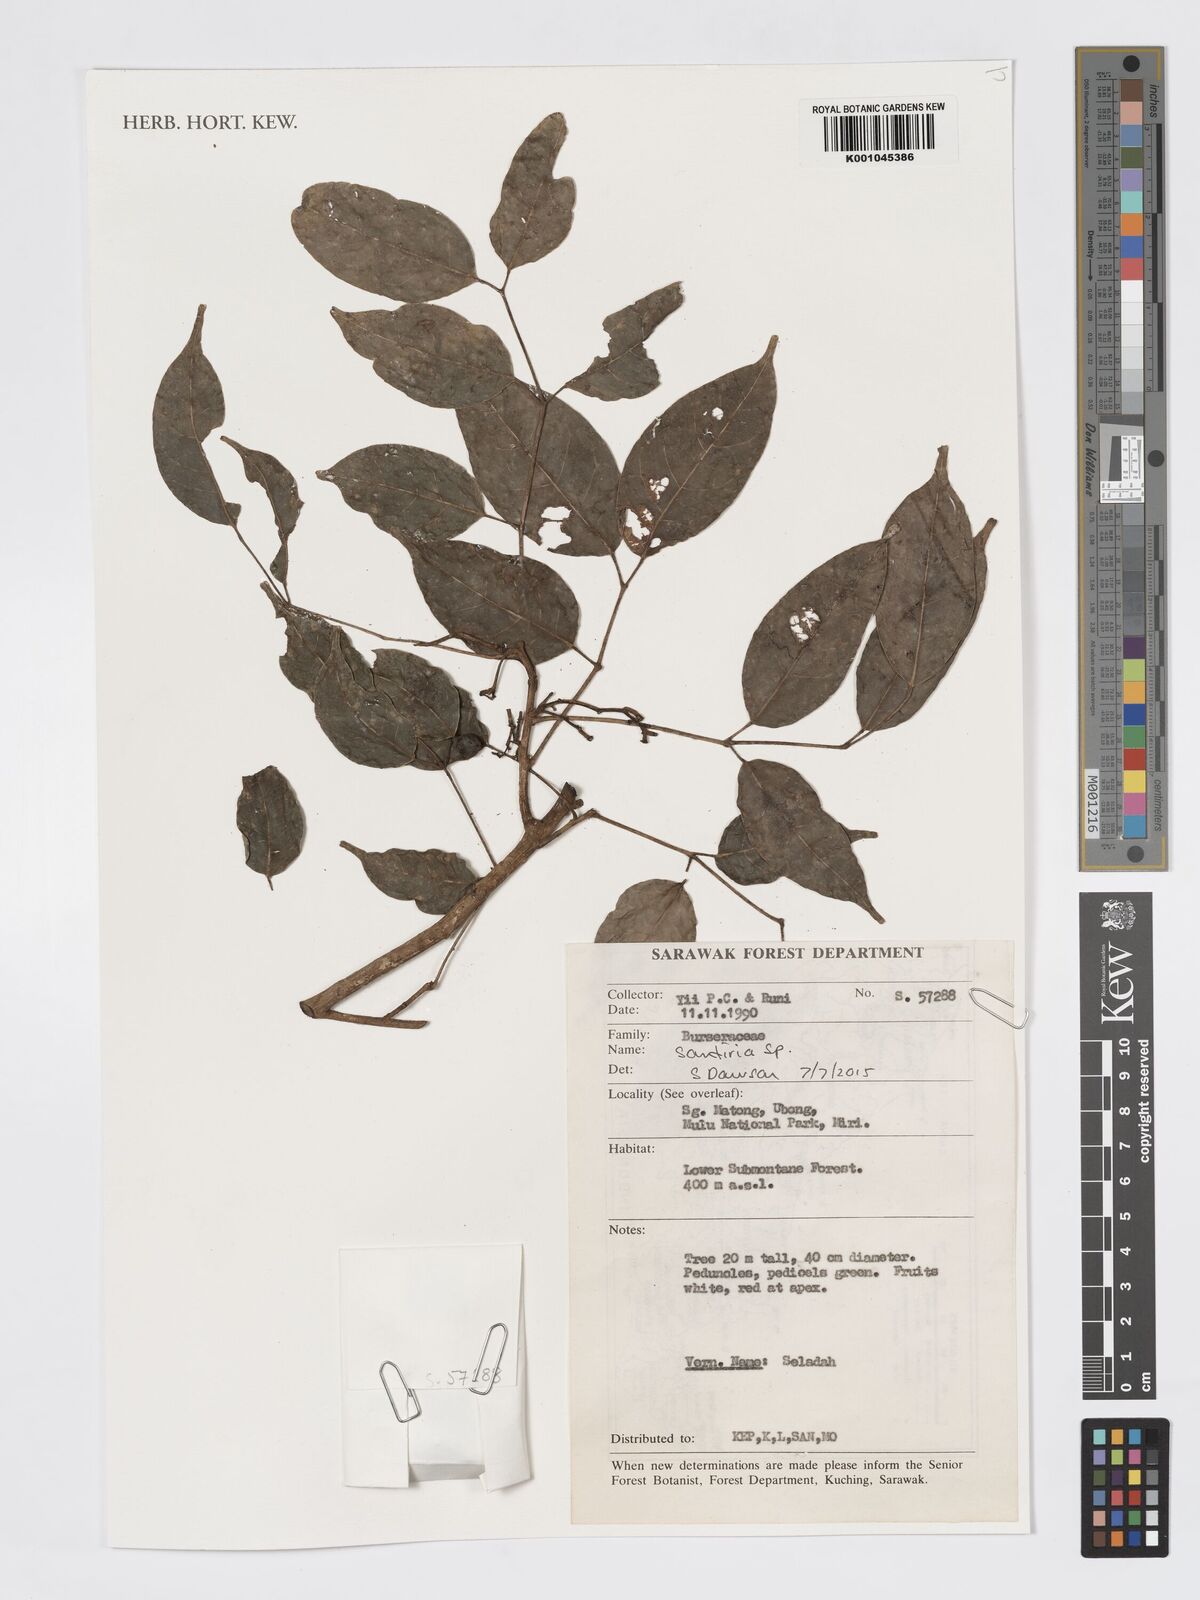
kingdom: Plantae
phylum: Tracheophyta
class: Magnoliopsida
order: Sapindales
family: Burseraceae
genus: Santiria
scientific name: Santiria
